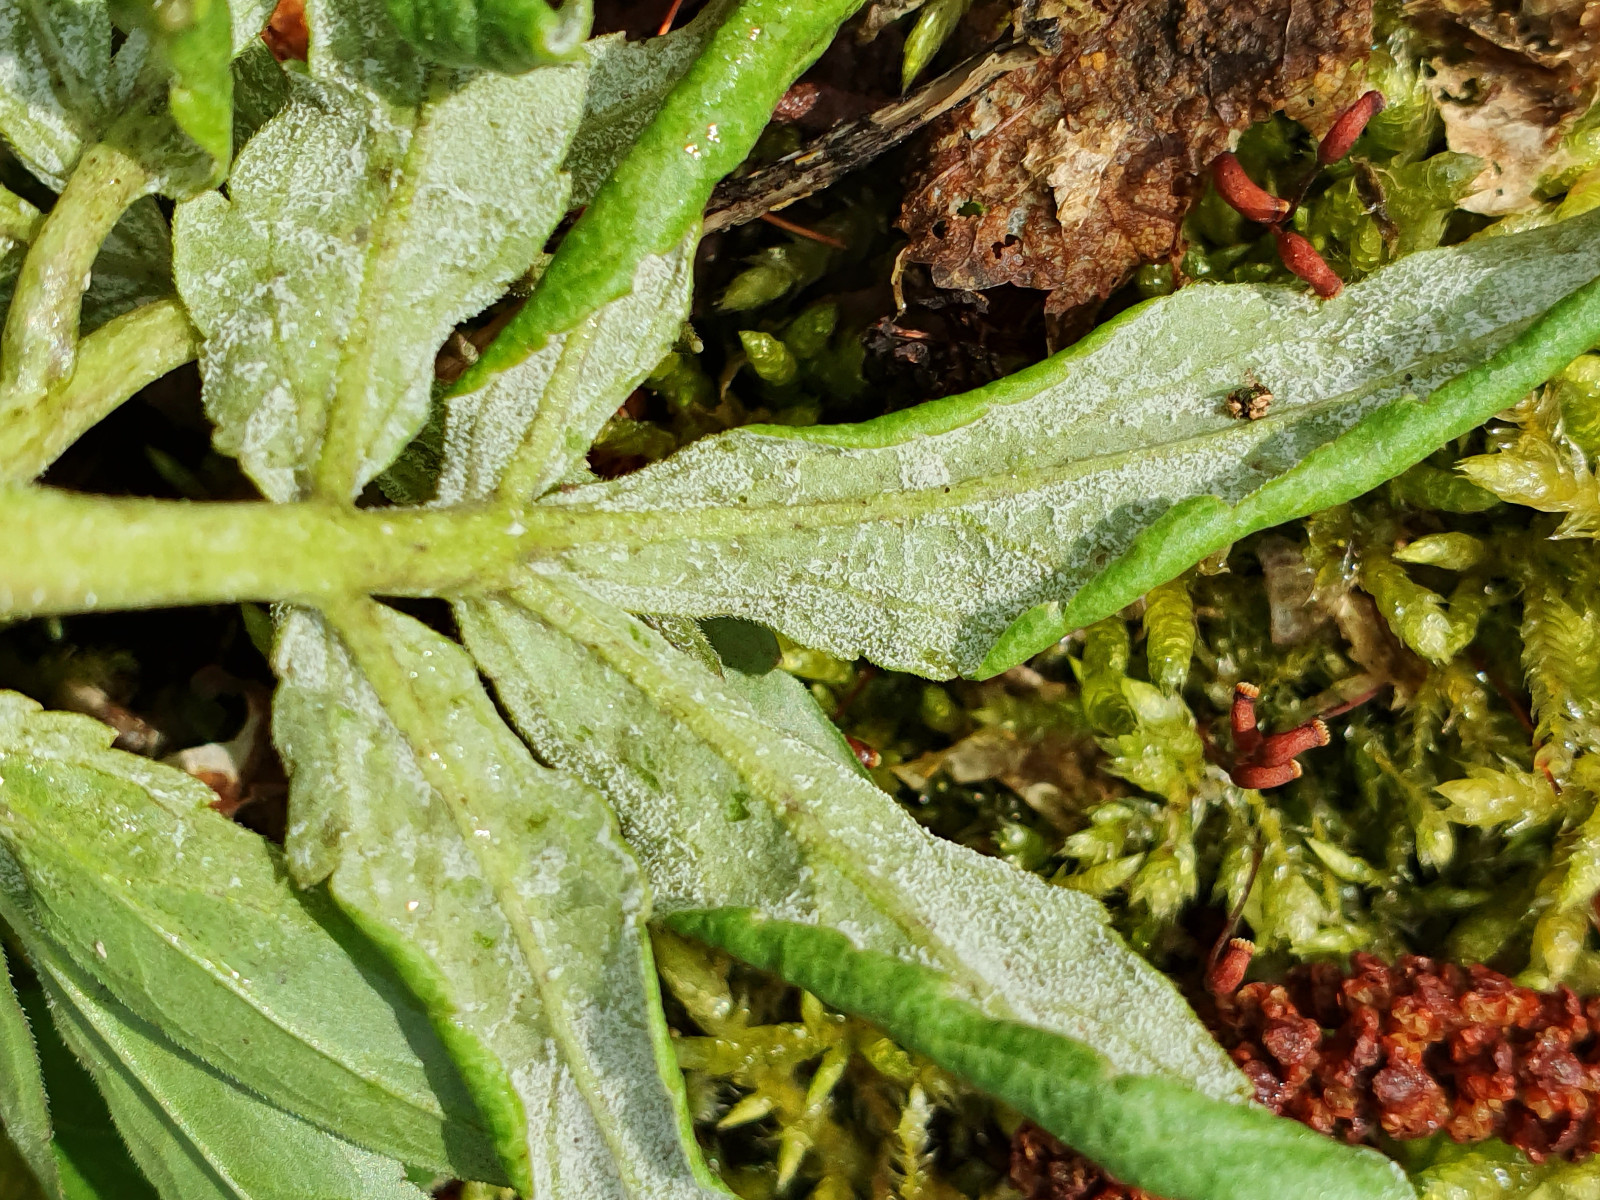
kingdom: Chromista
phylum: Oomycota
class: Peronosporea
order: Peronosporales
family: Peronosporaceae
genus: Hyaloperonospora
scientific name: Hyaloperonospora dentariae
